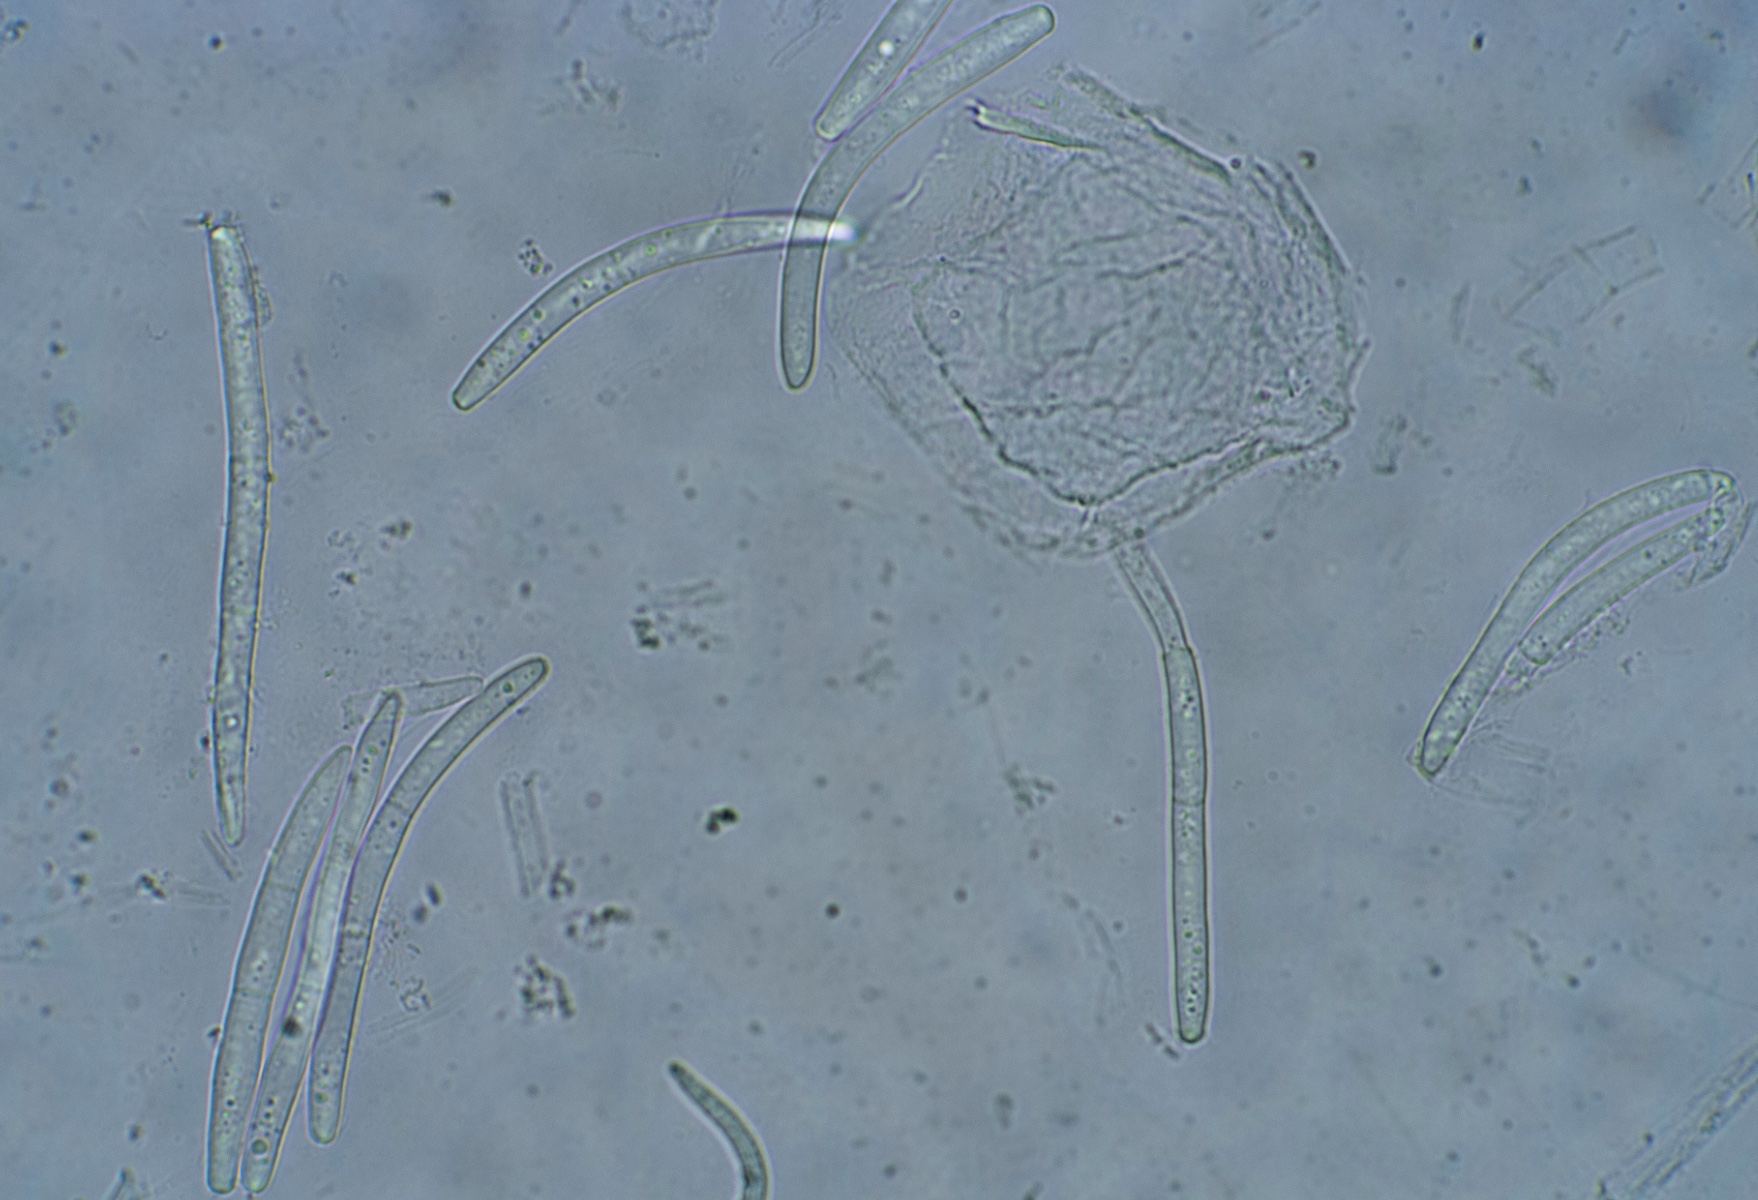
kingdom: Fungi
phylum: Ascomycota
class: Dothideomycetes
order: Mycosphaerellales
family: Mycosphaerellaceae
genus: Phloeospora
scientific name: Phloeospora robiniae
